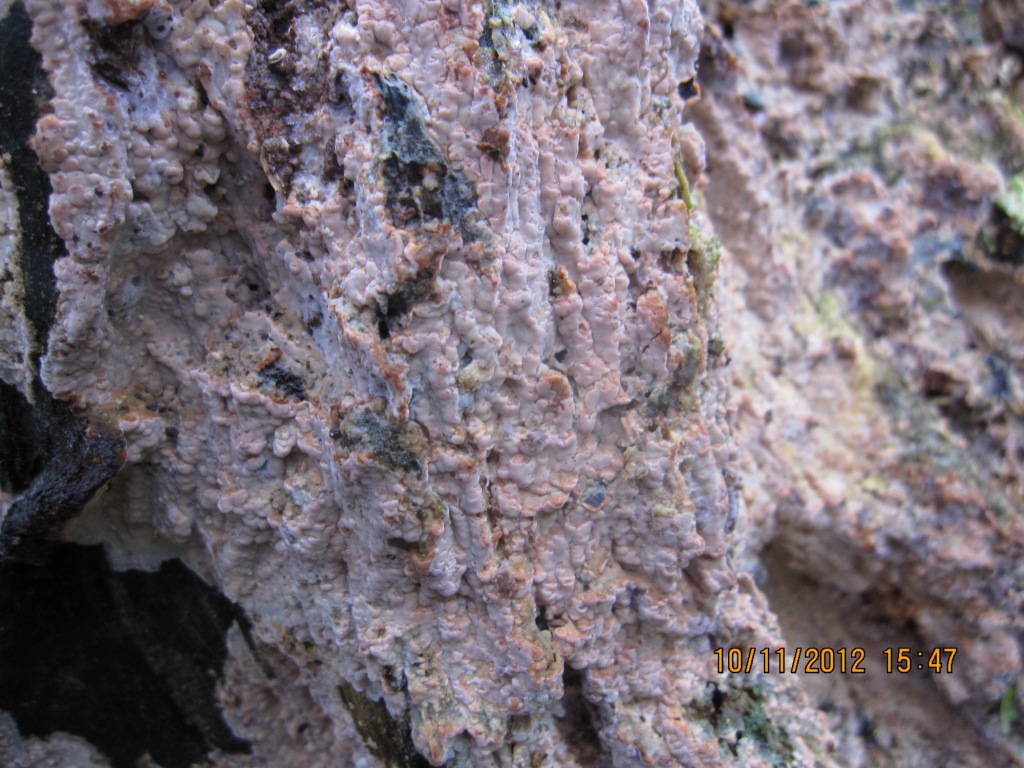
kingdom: Fungi
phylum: Basidiomycota
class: Agaricomycetes
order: Russulales
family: Peniophoraceae
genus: Gloiothele
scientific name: Gloiothele lactescens
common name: bitter olieskind
